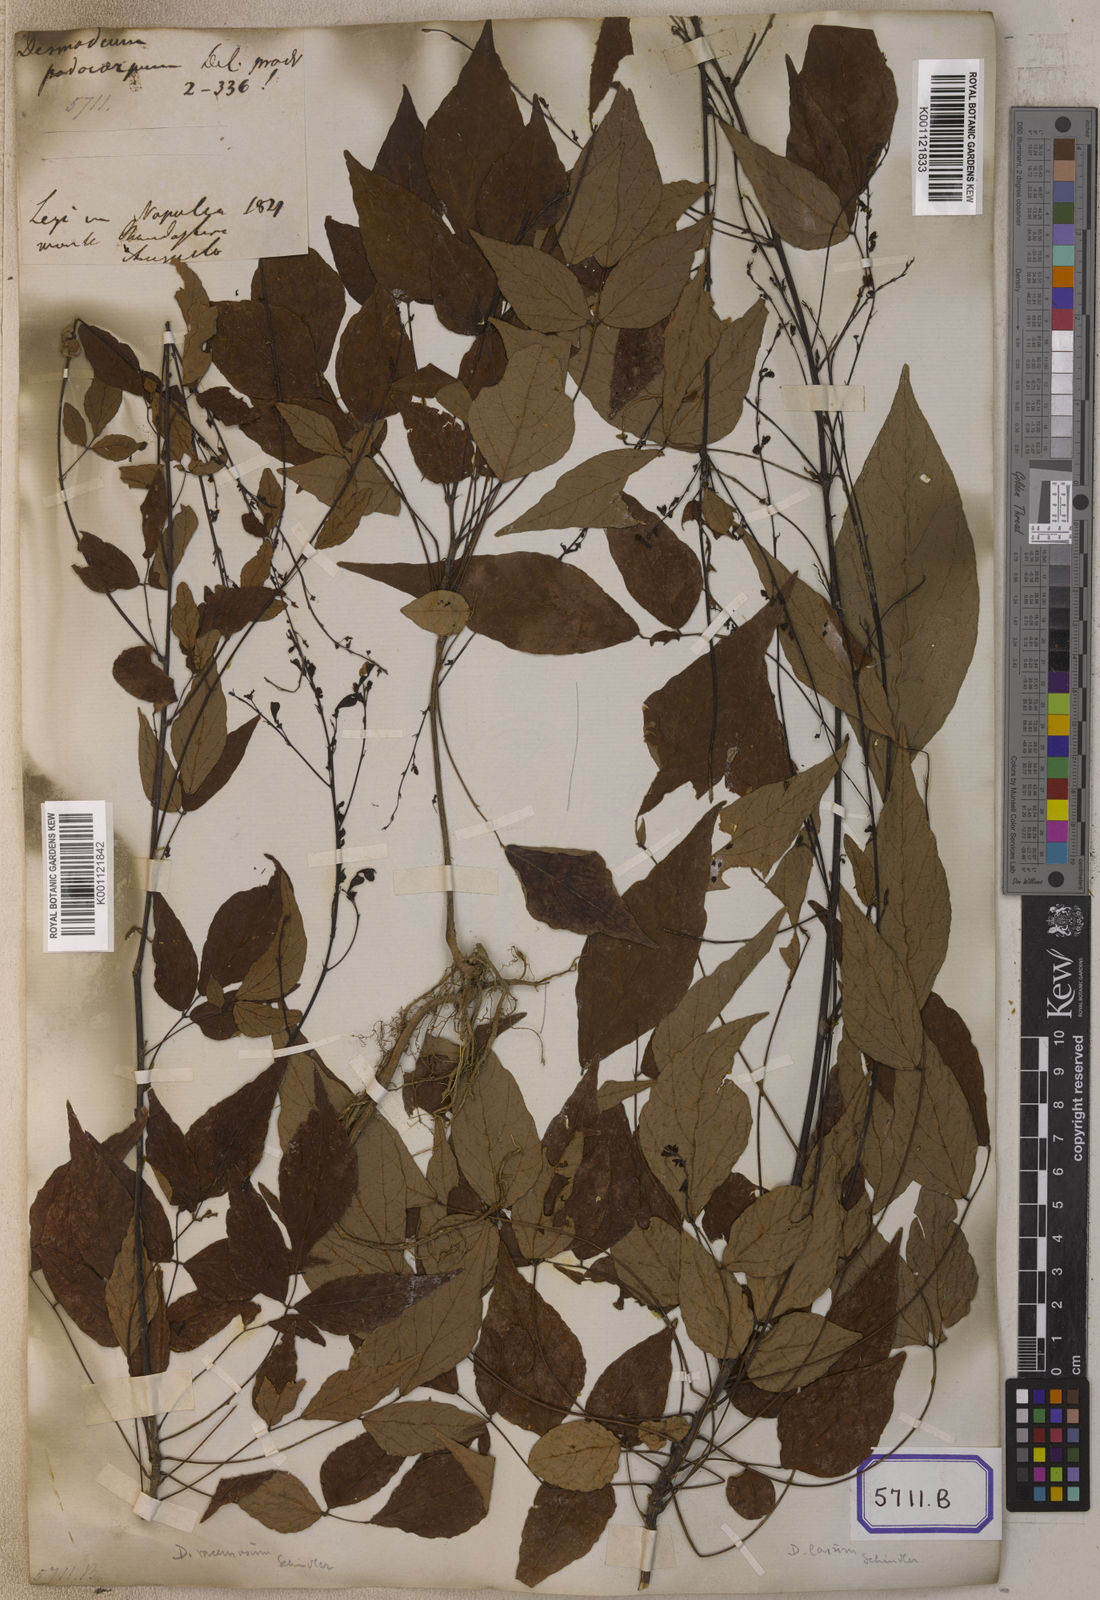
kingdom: Plantae
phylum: Tracheophyta
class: Magnoliopsida
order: Fabales
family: Fabaceae
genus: Hylodesmum
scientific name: Hylodesmum podocarpum
